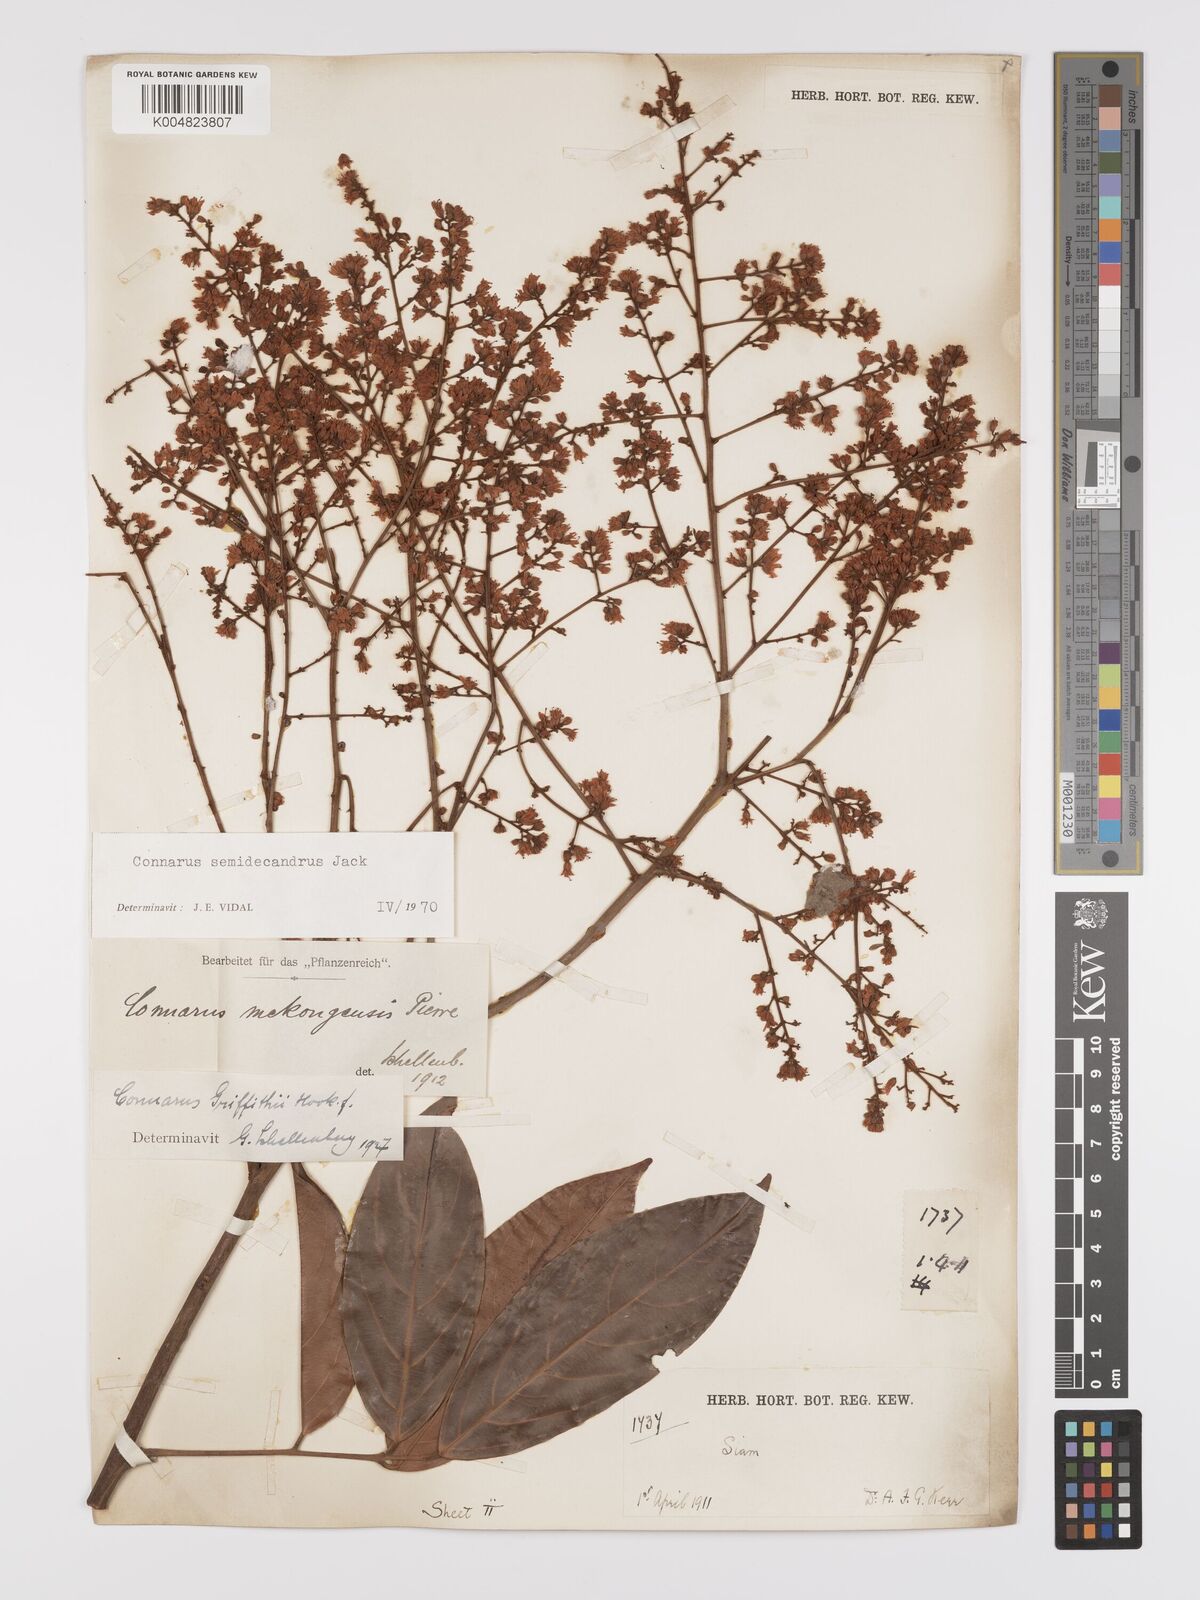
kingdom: Plantae
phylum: Tracheophyta
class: Magnoliopsida
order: Oxalidales
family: Connaraceae
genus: Connarus
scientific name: Connarus semidecandrus
